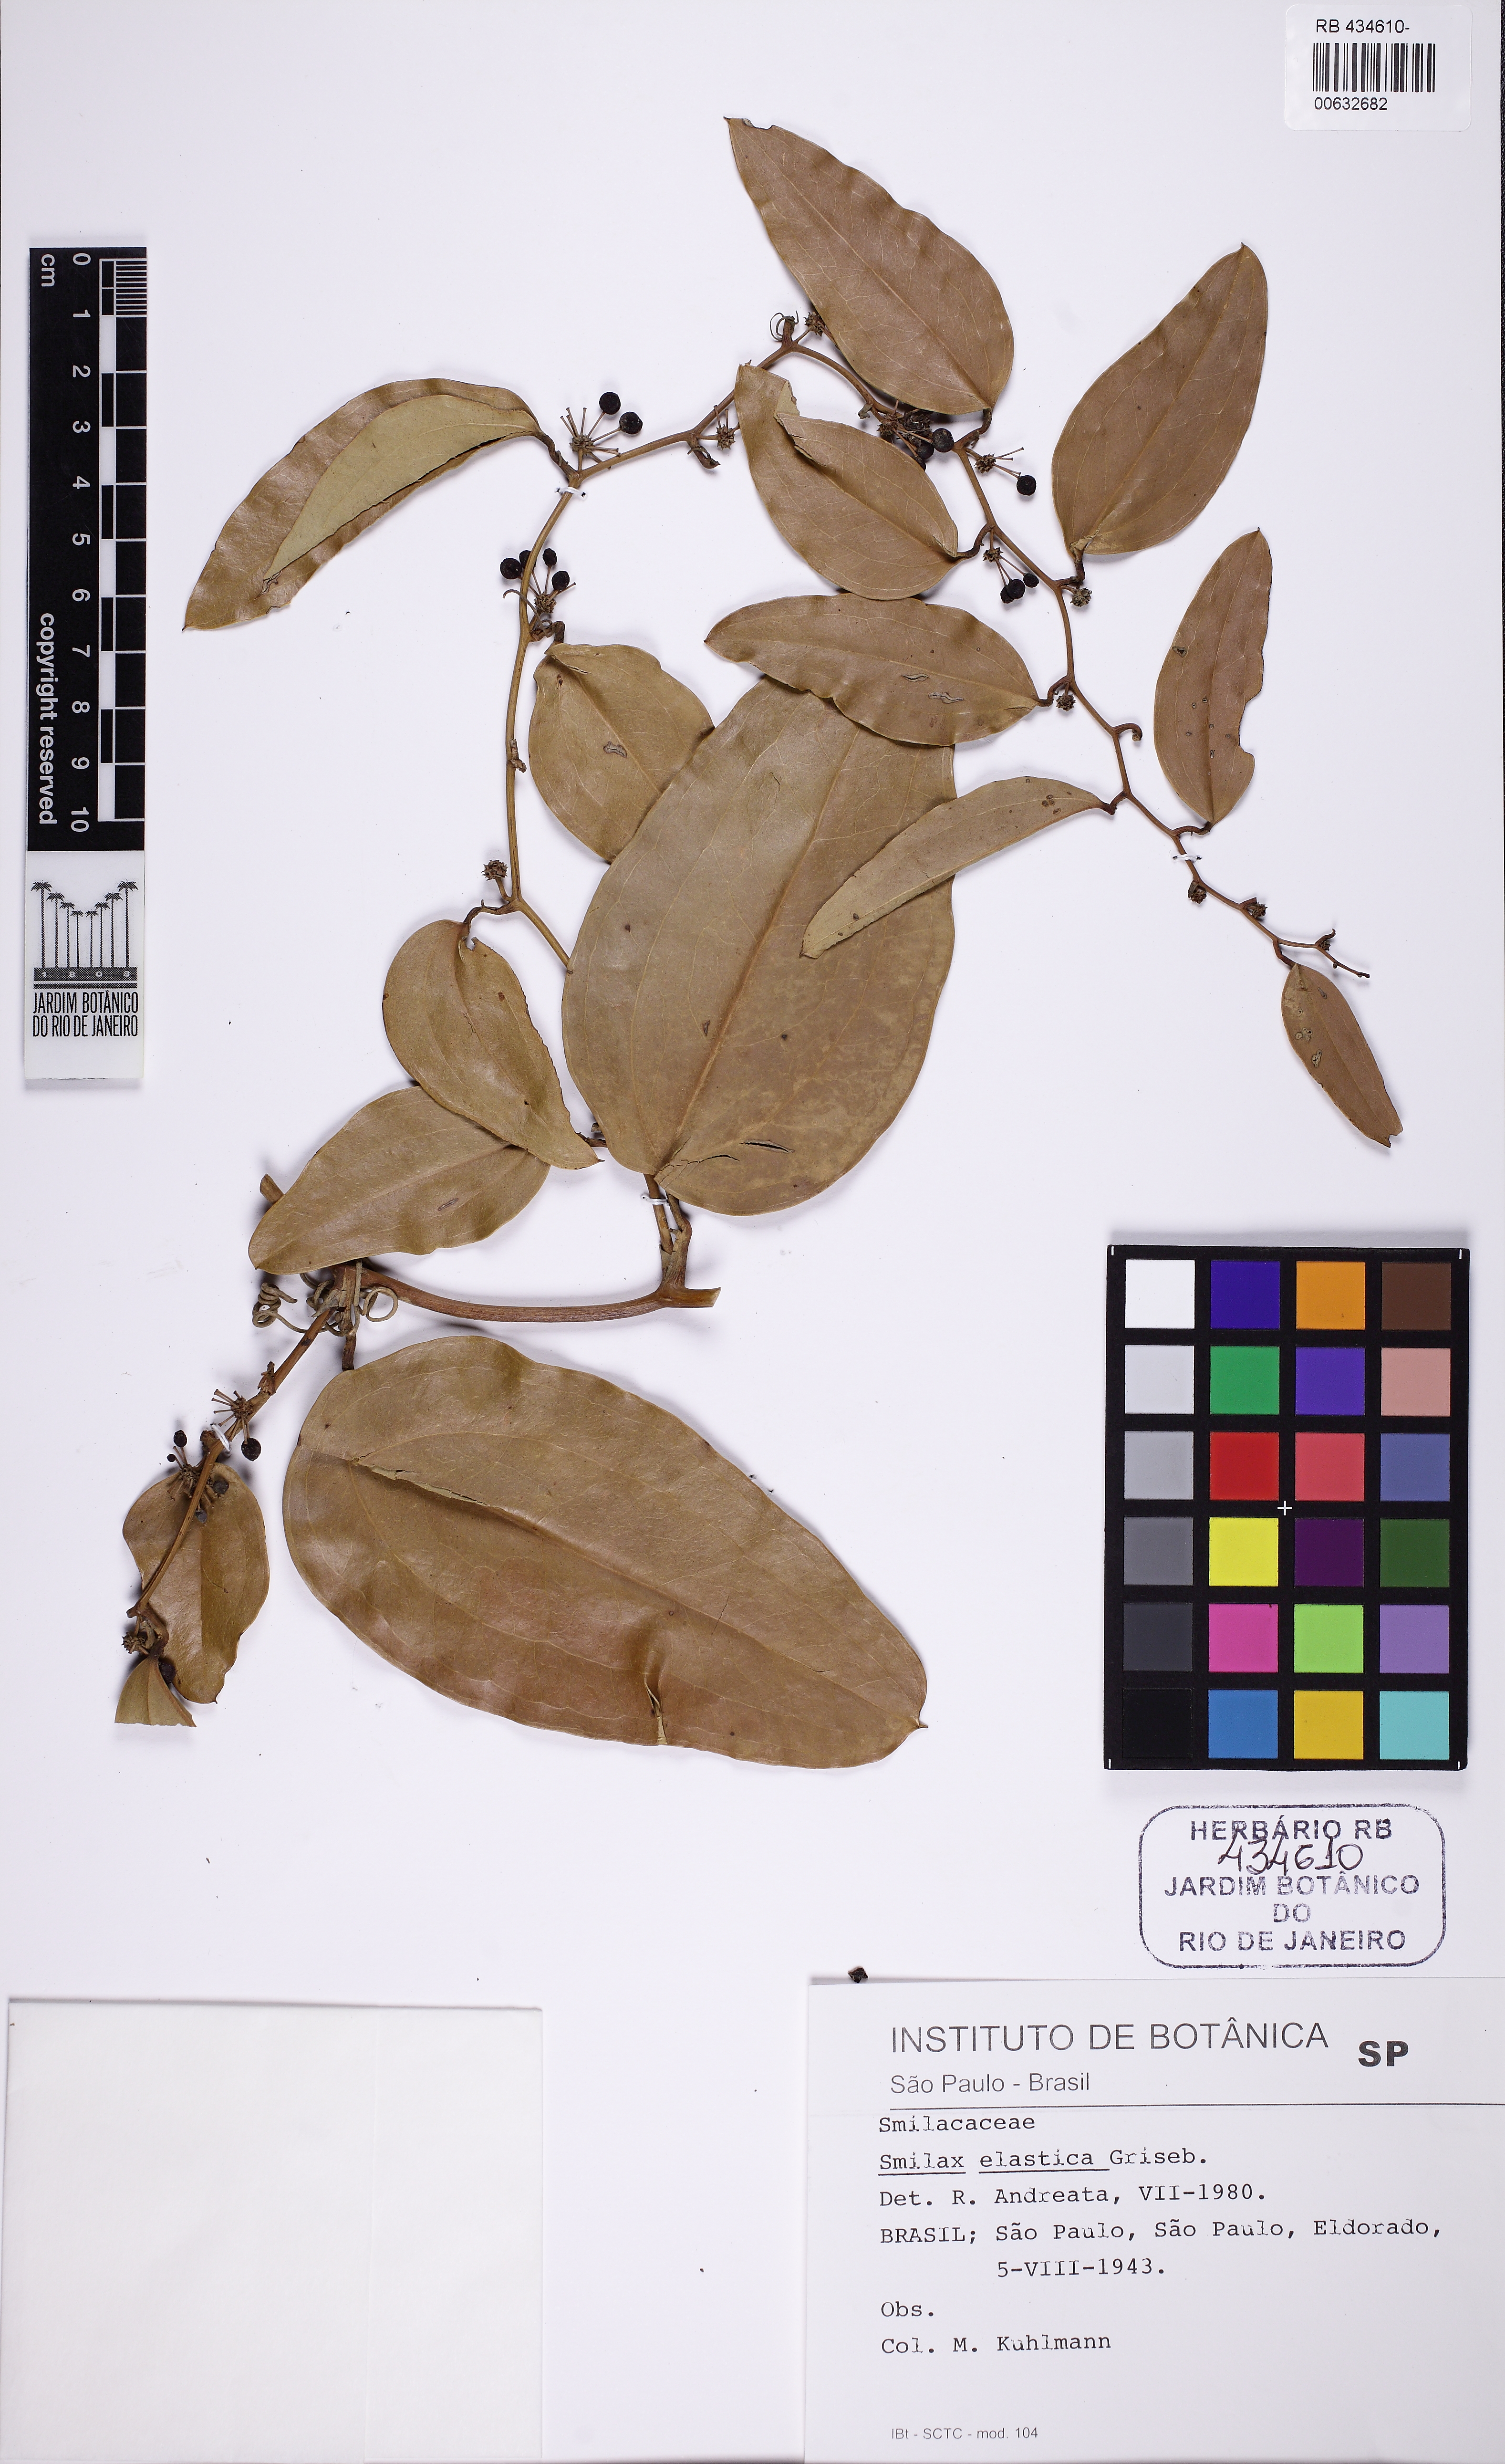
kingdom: Plantae
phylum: Tracheophyta
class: Liliopsida
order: Liliales
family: Smilacaceae
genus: Smilax
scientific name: Smilax elastica
